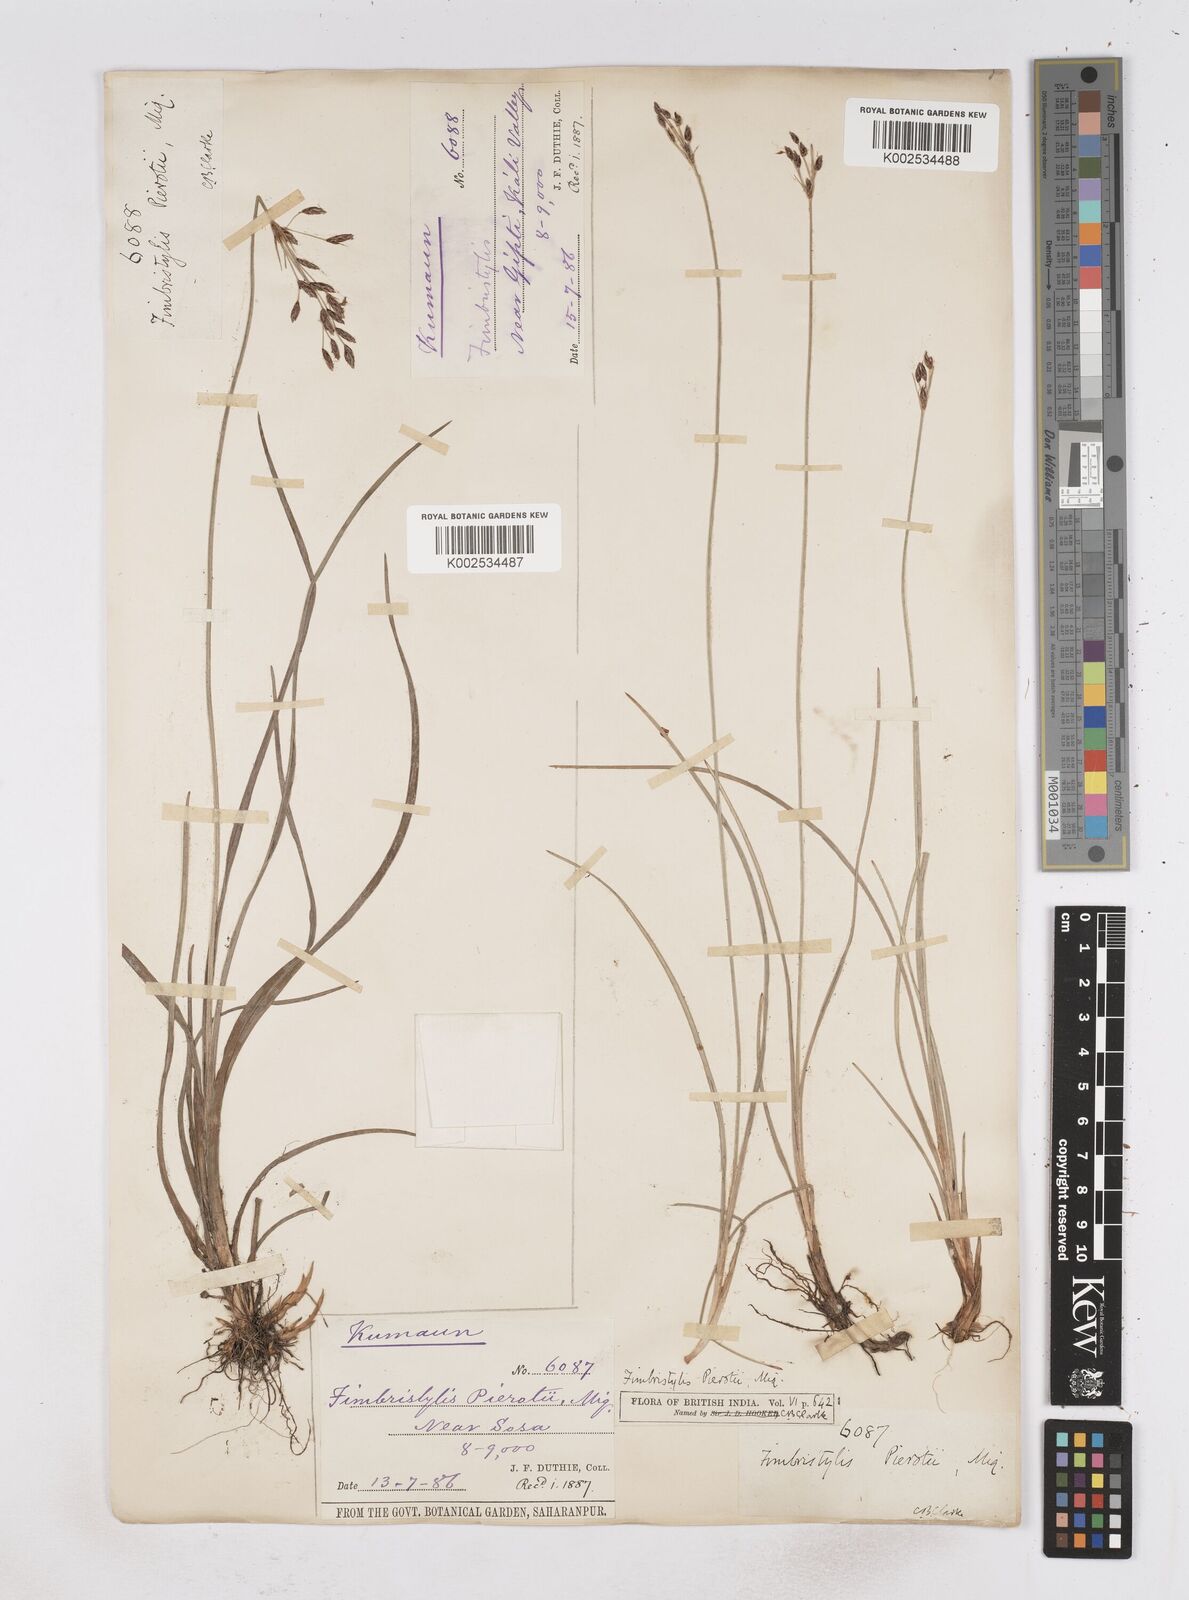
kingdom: Plantae
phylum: Tracheophyta
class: Liliopsida
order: Poales
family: Cyperaceae
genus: Fimbristylis
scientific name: Fimbristylis pierotii
